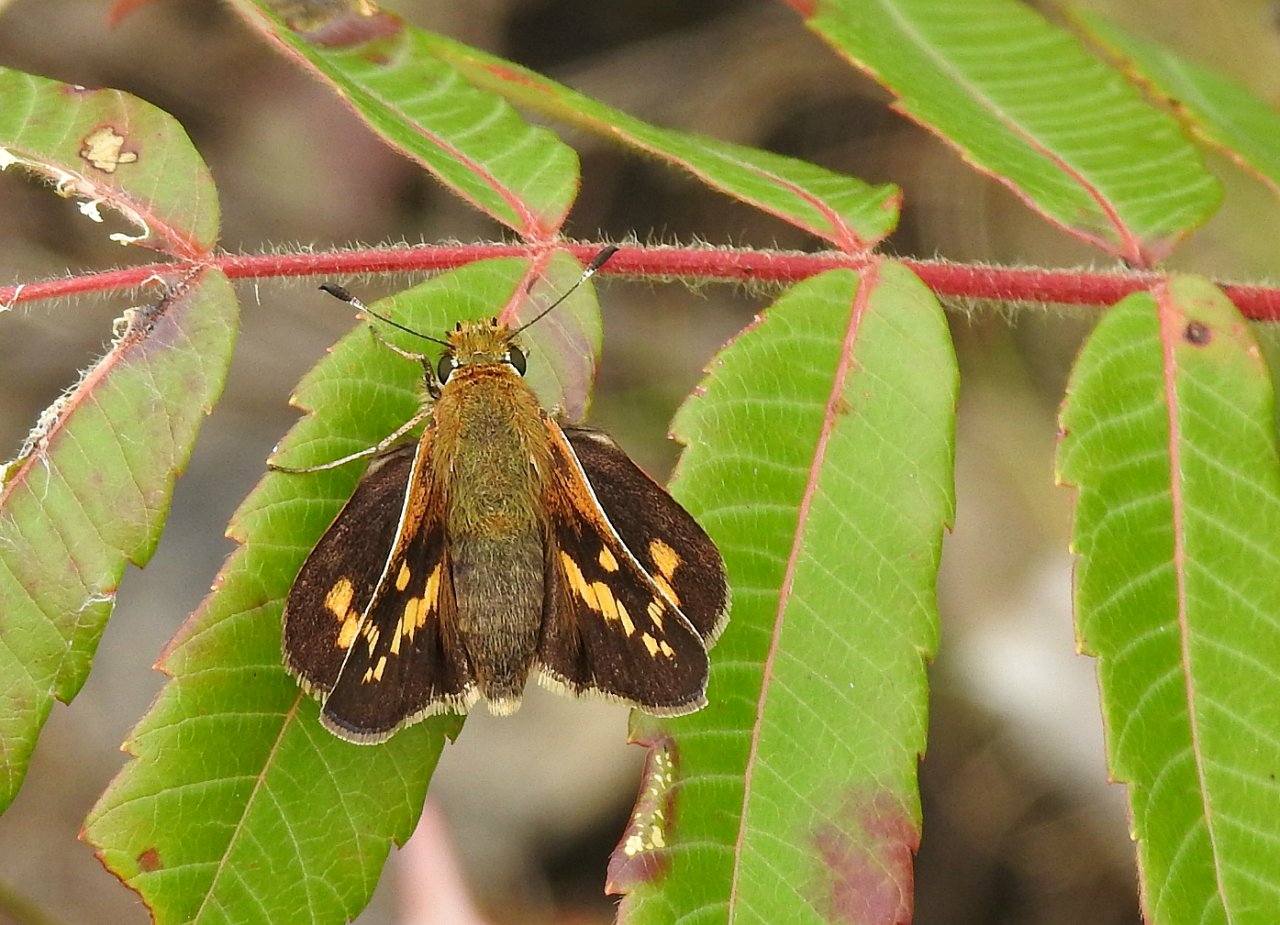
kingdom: Animalia
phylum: Arthropoda
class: Insecta
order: Lepidoptera
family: Hesperiidae
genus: Hesperia
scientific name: Hesperia leonardus
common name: Leonard's Skipper
